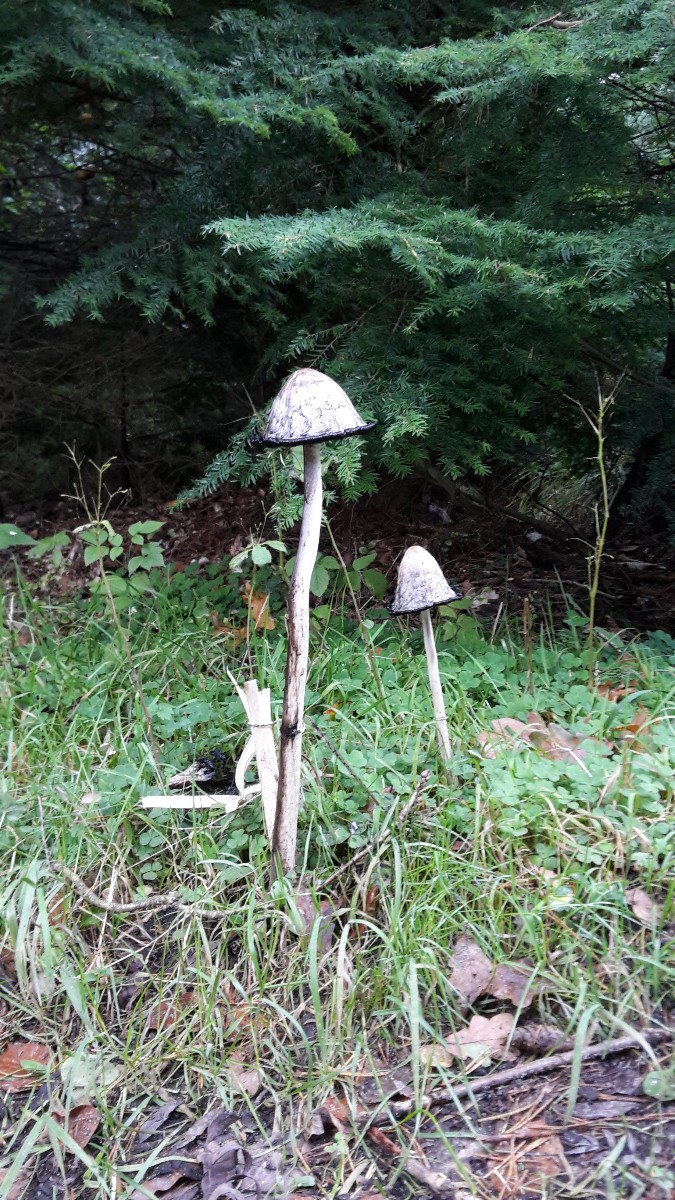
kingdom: Fungi
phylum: Basidiomycota
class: Agaricomycetes
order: Agaricales
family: Agaricaceae
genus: Coprinus
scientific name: Coprinus comatus
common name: stor parykhat
